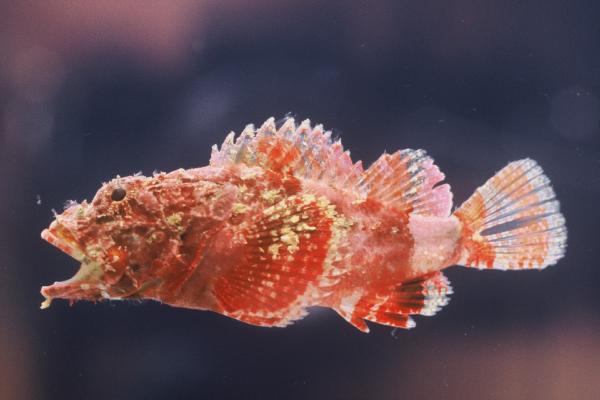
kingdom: Animalia
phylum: Chordata
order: Scorpaeniformes
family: Scorpaenidae
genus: Scorpaenopsis
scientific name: Scorpaenopsis vittapinna
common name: Bandfin scorpionfish
